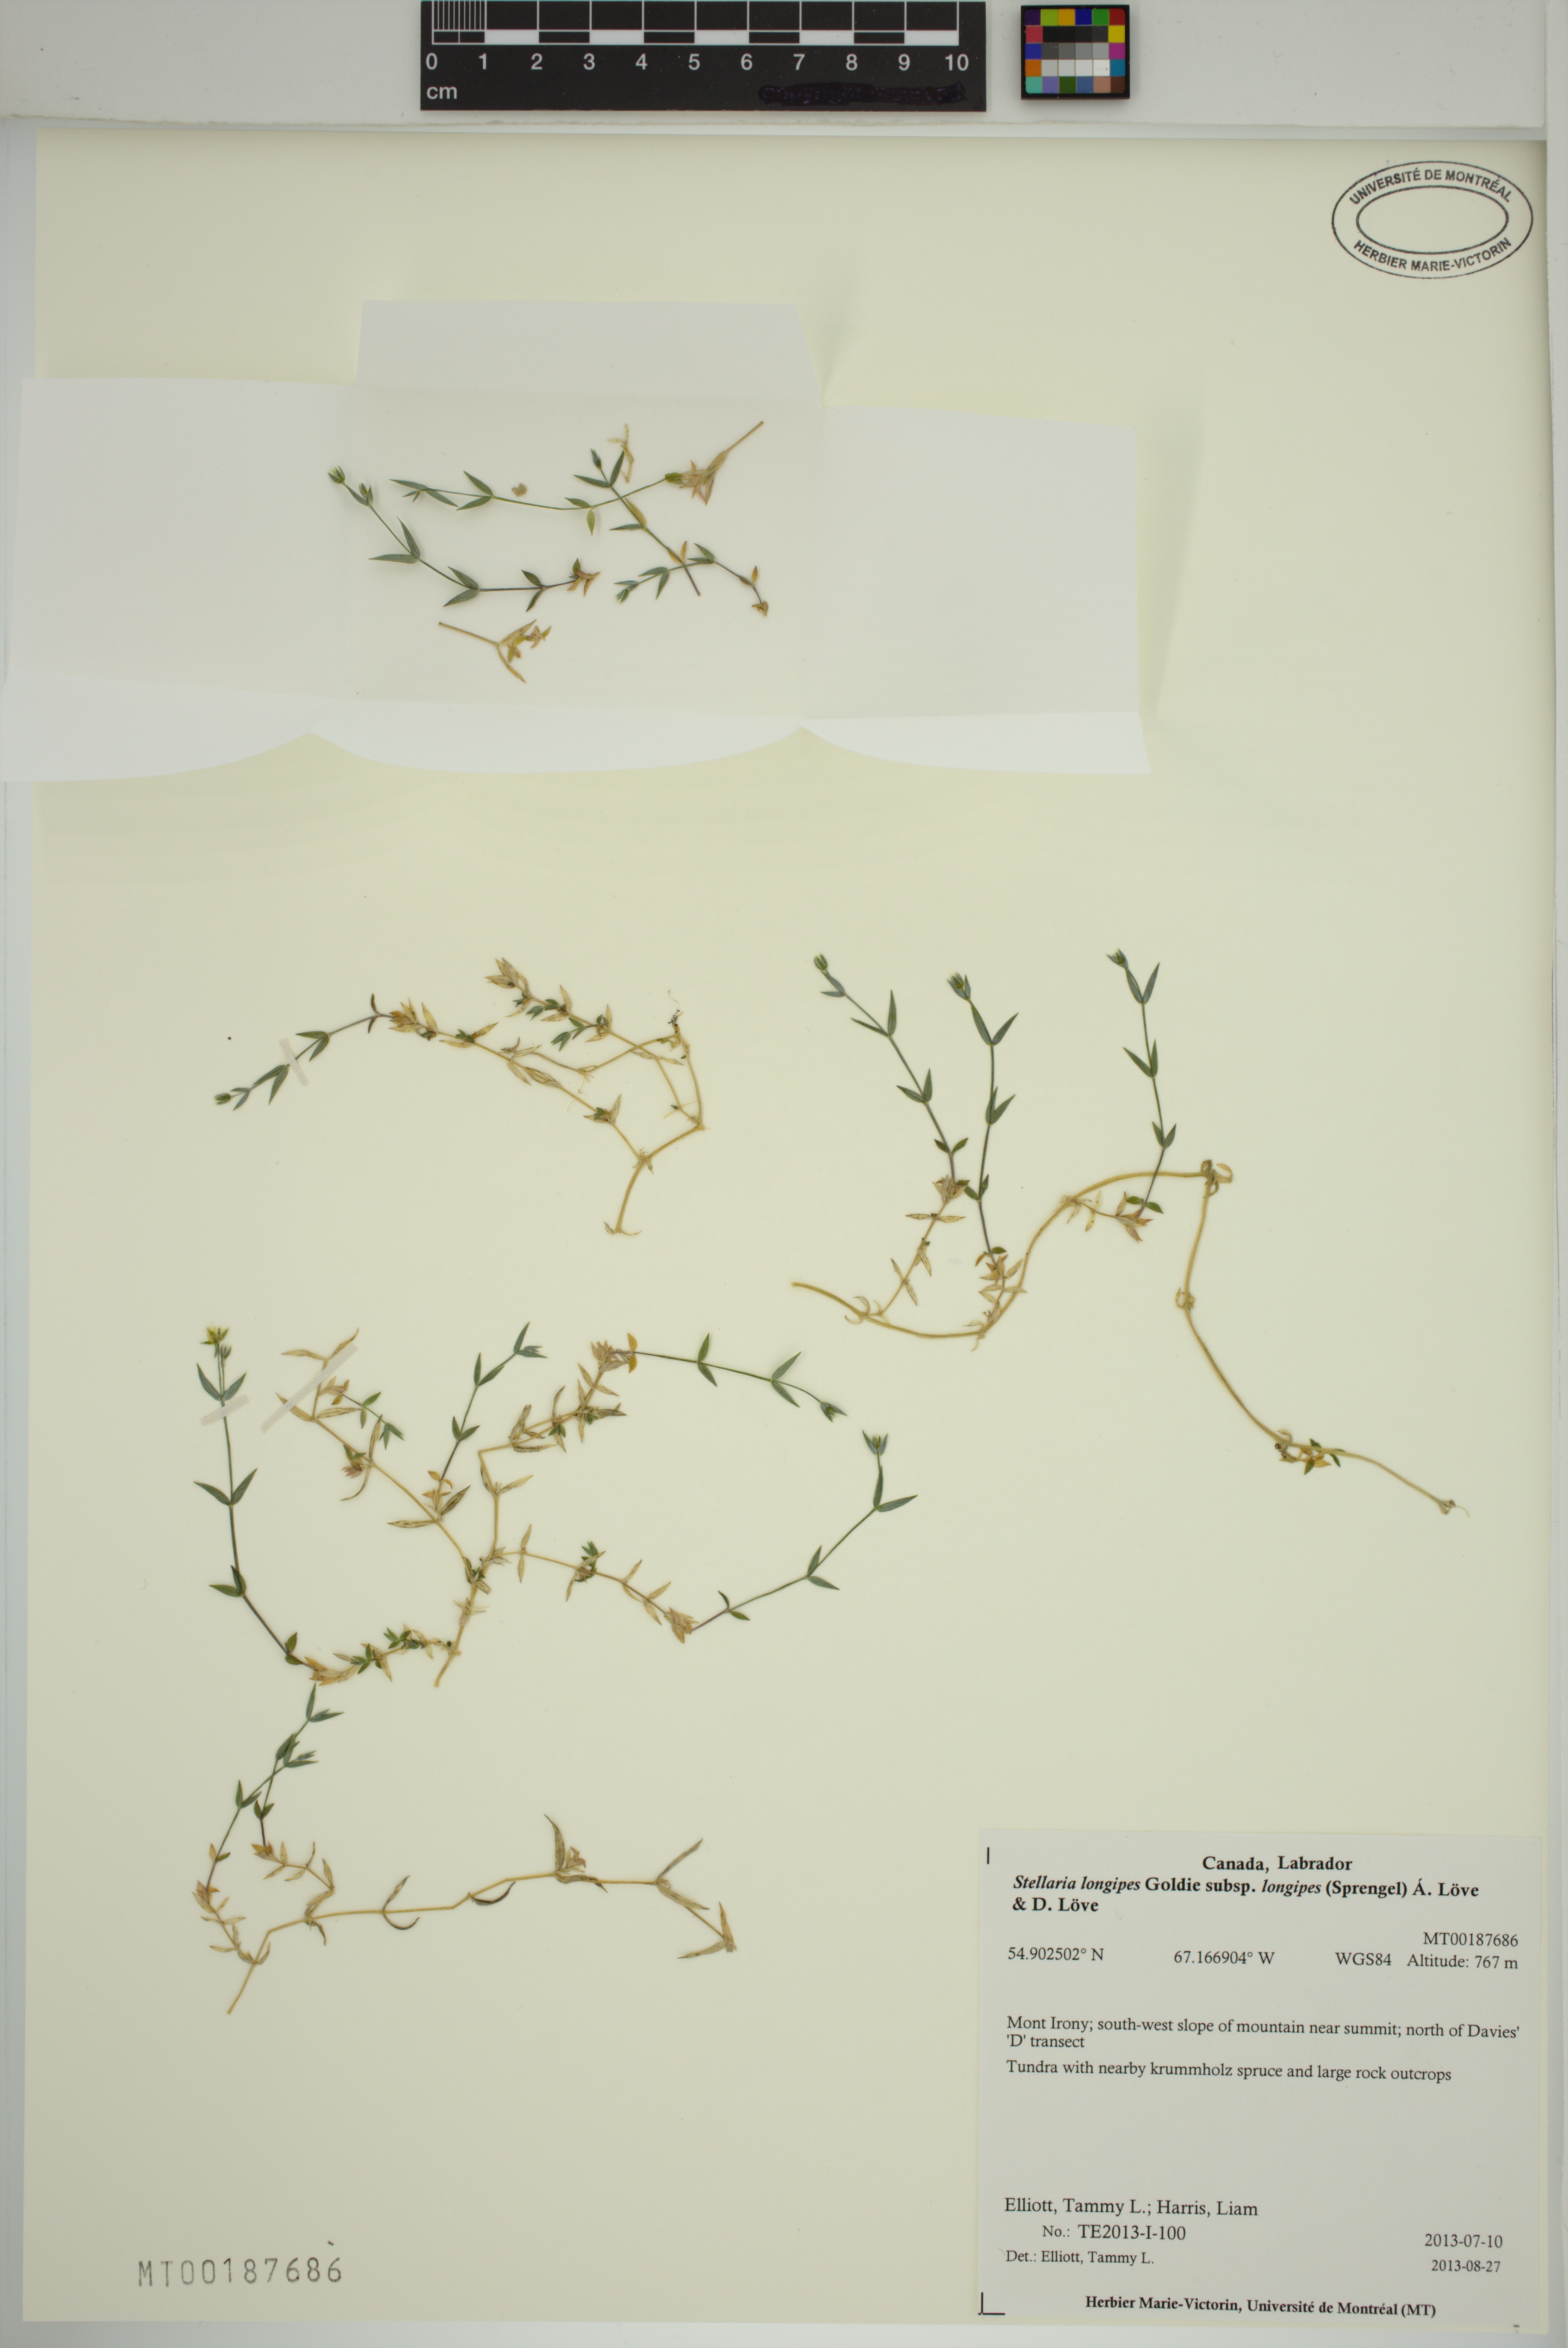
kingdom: Plantae
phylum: Tracheophyta
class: Magnoliopsida
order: Caryophyllales
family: Caryophyllaceae
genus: Stellaria
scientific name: Stellaria longipes
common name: Goldie's starwort
